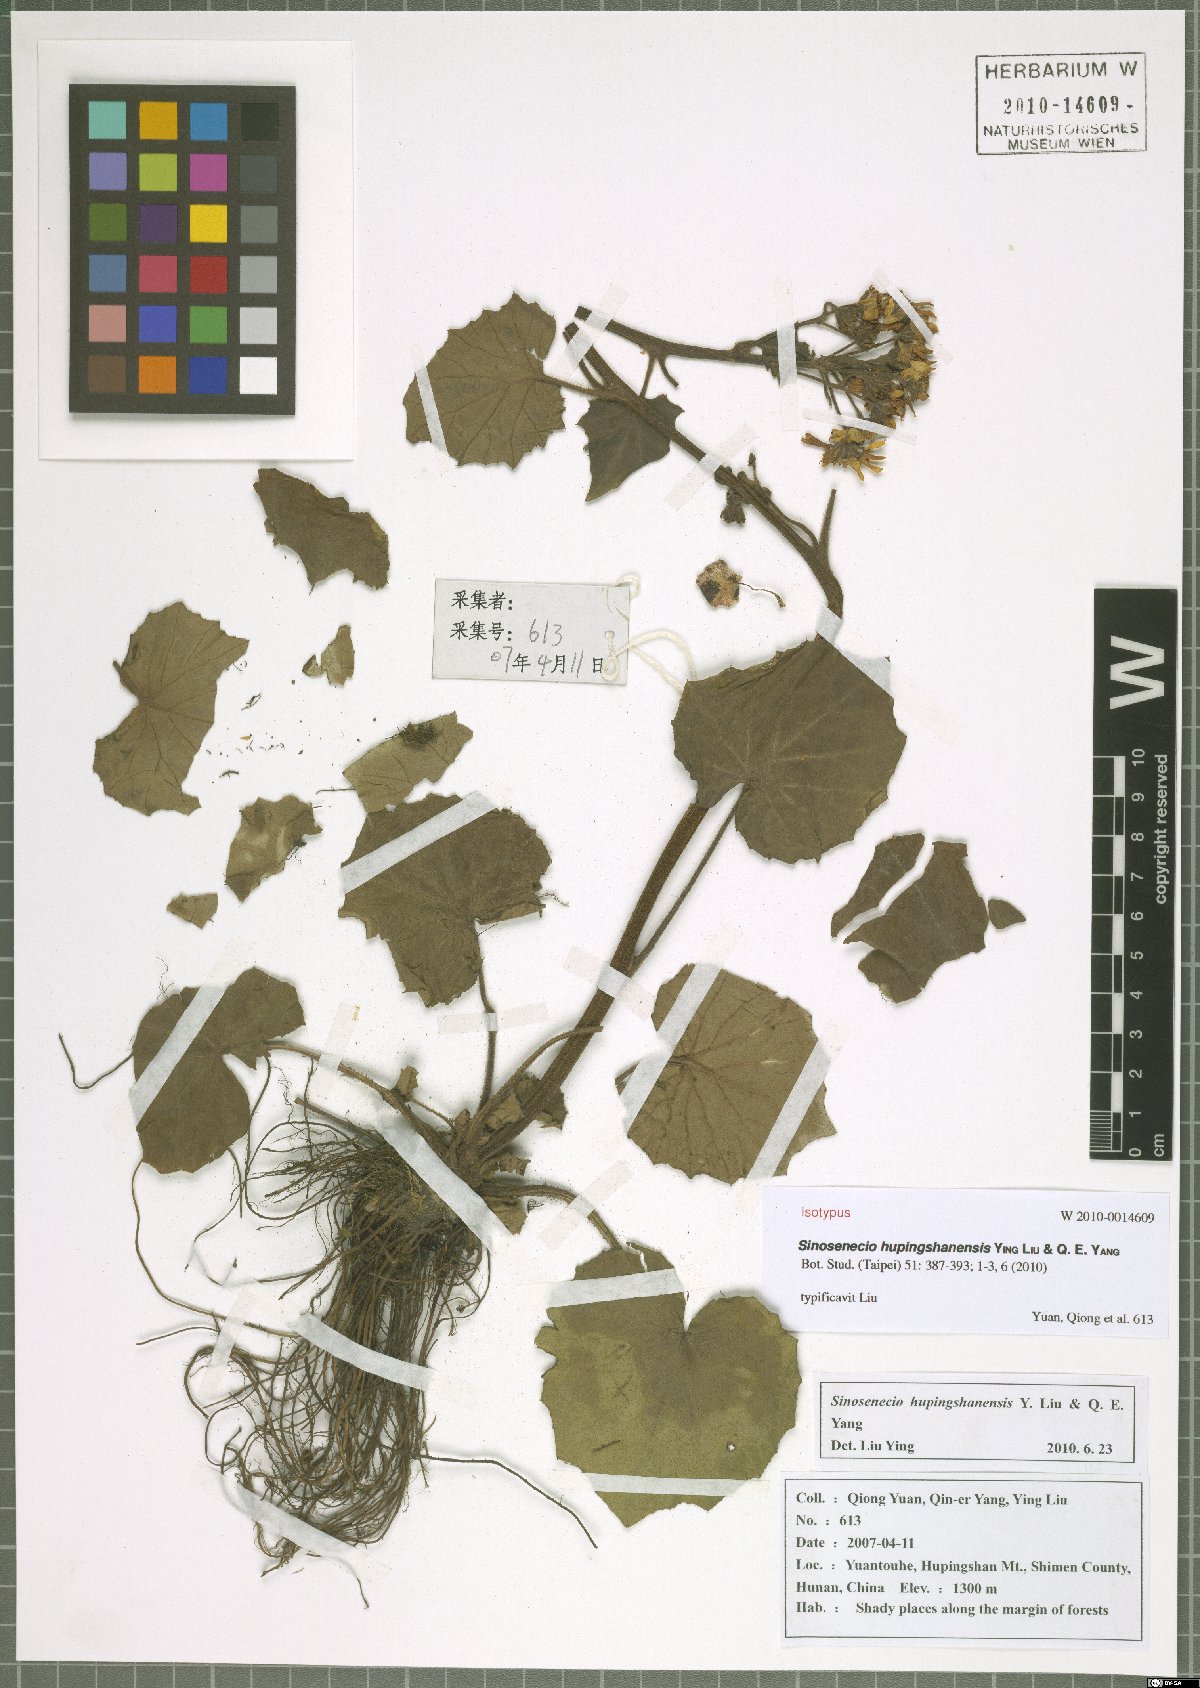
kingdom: Plantae
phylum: Tracheophyta
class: Magnoliopsida
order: Asterales
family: Asteraceae
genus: Sinosenecio
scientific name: Sinosenecio hupingshanensis
